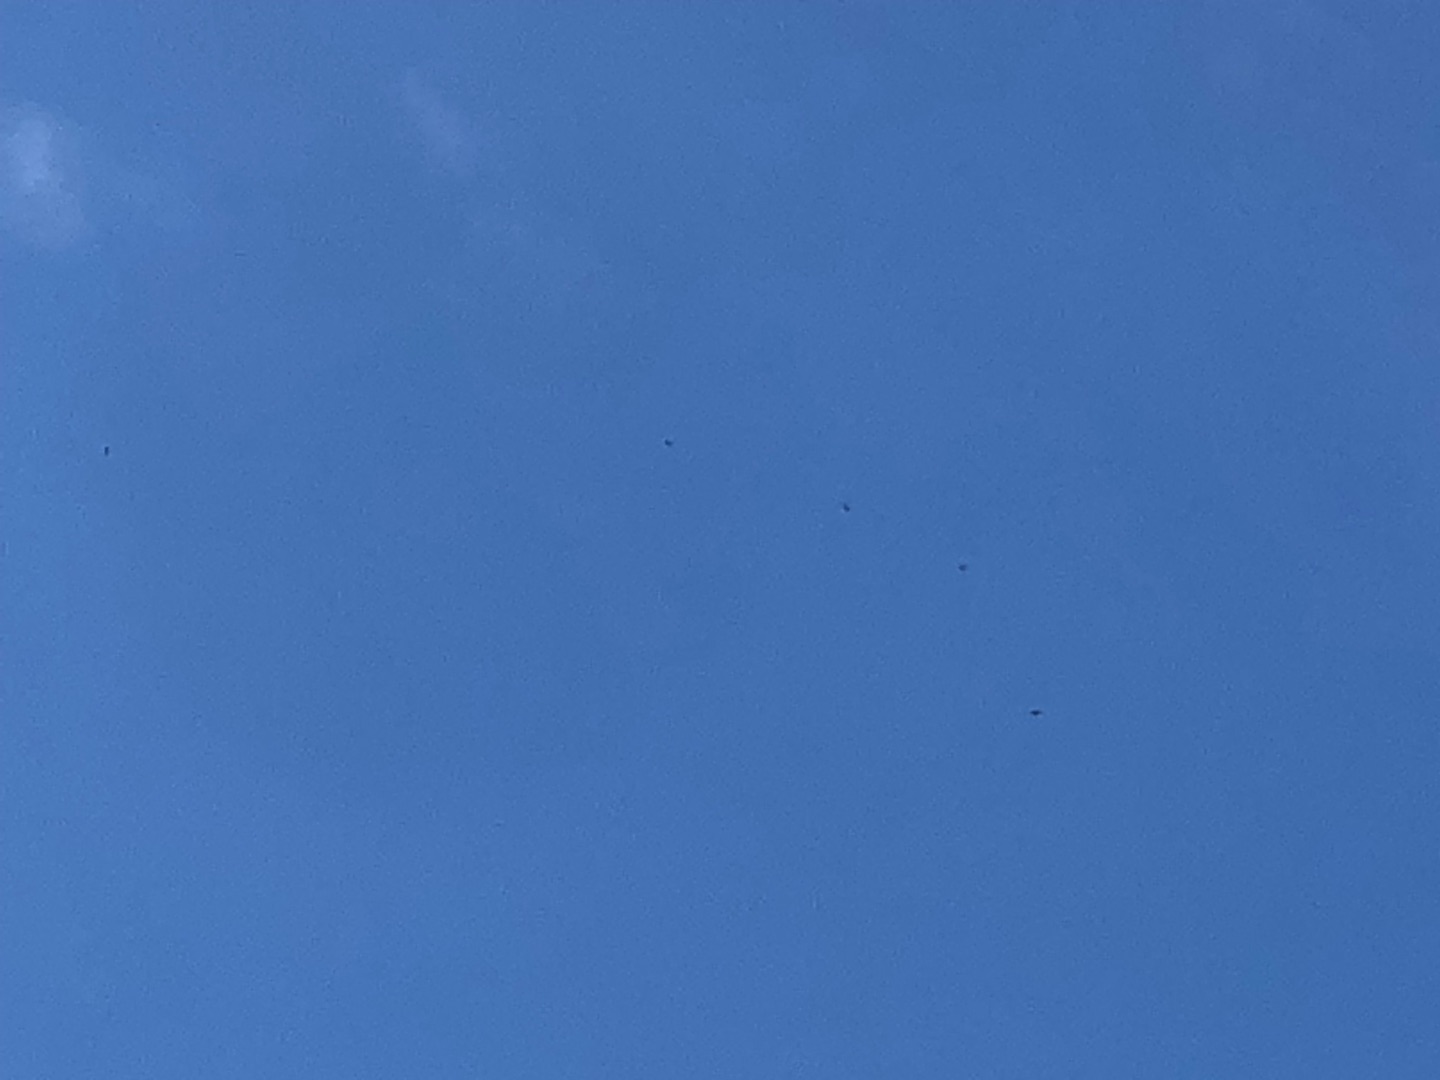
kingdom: Animalia
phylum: Chordata
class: Aves
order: Accipitriformes
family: Accipitridae
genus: Haliaeetus
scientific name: Haliaeetus albicilla
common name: Havørn
